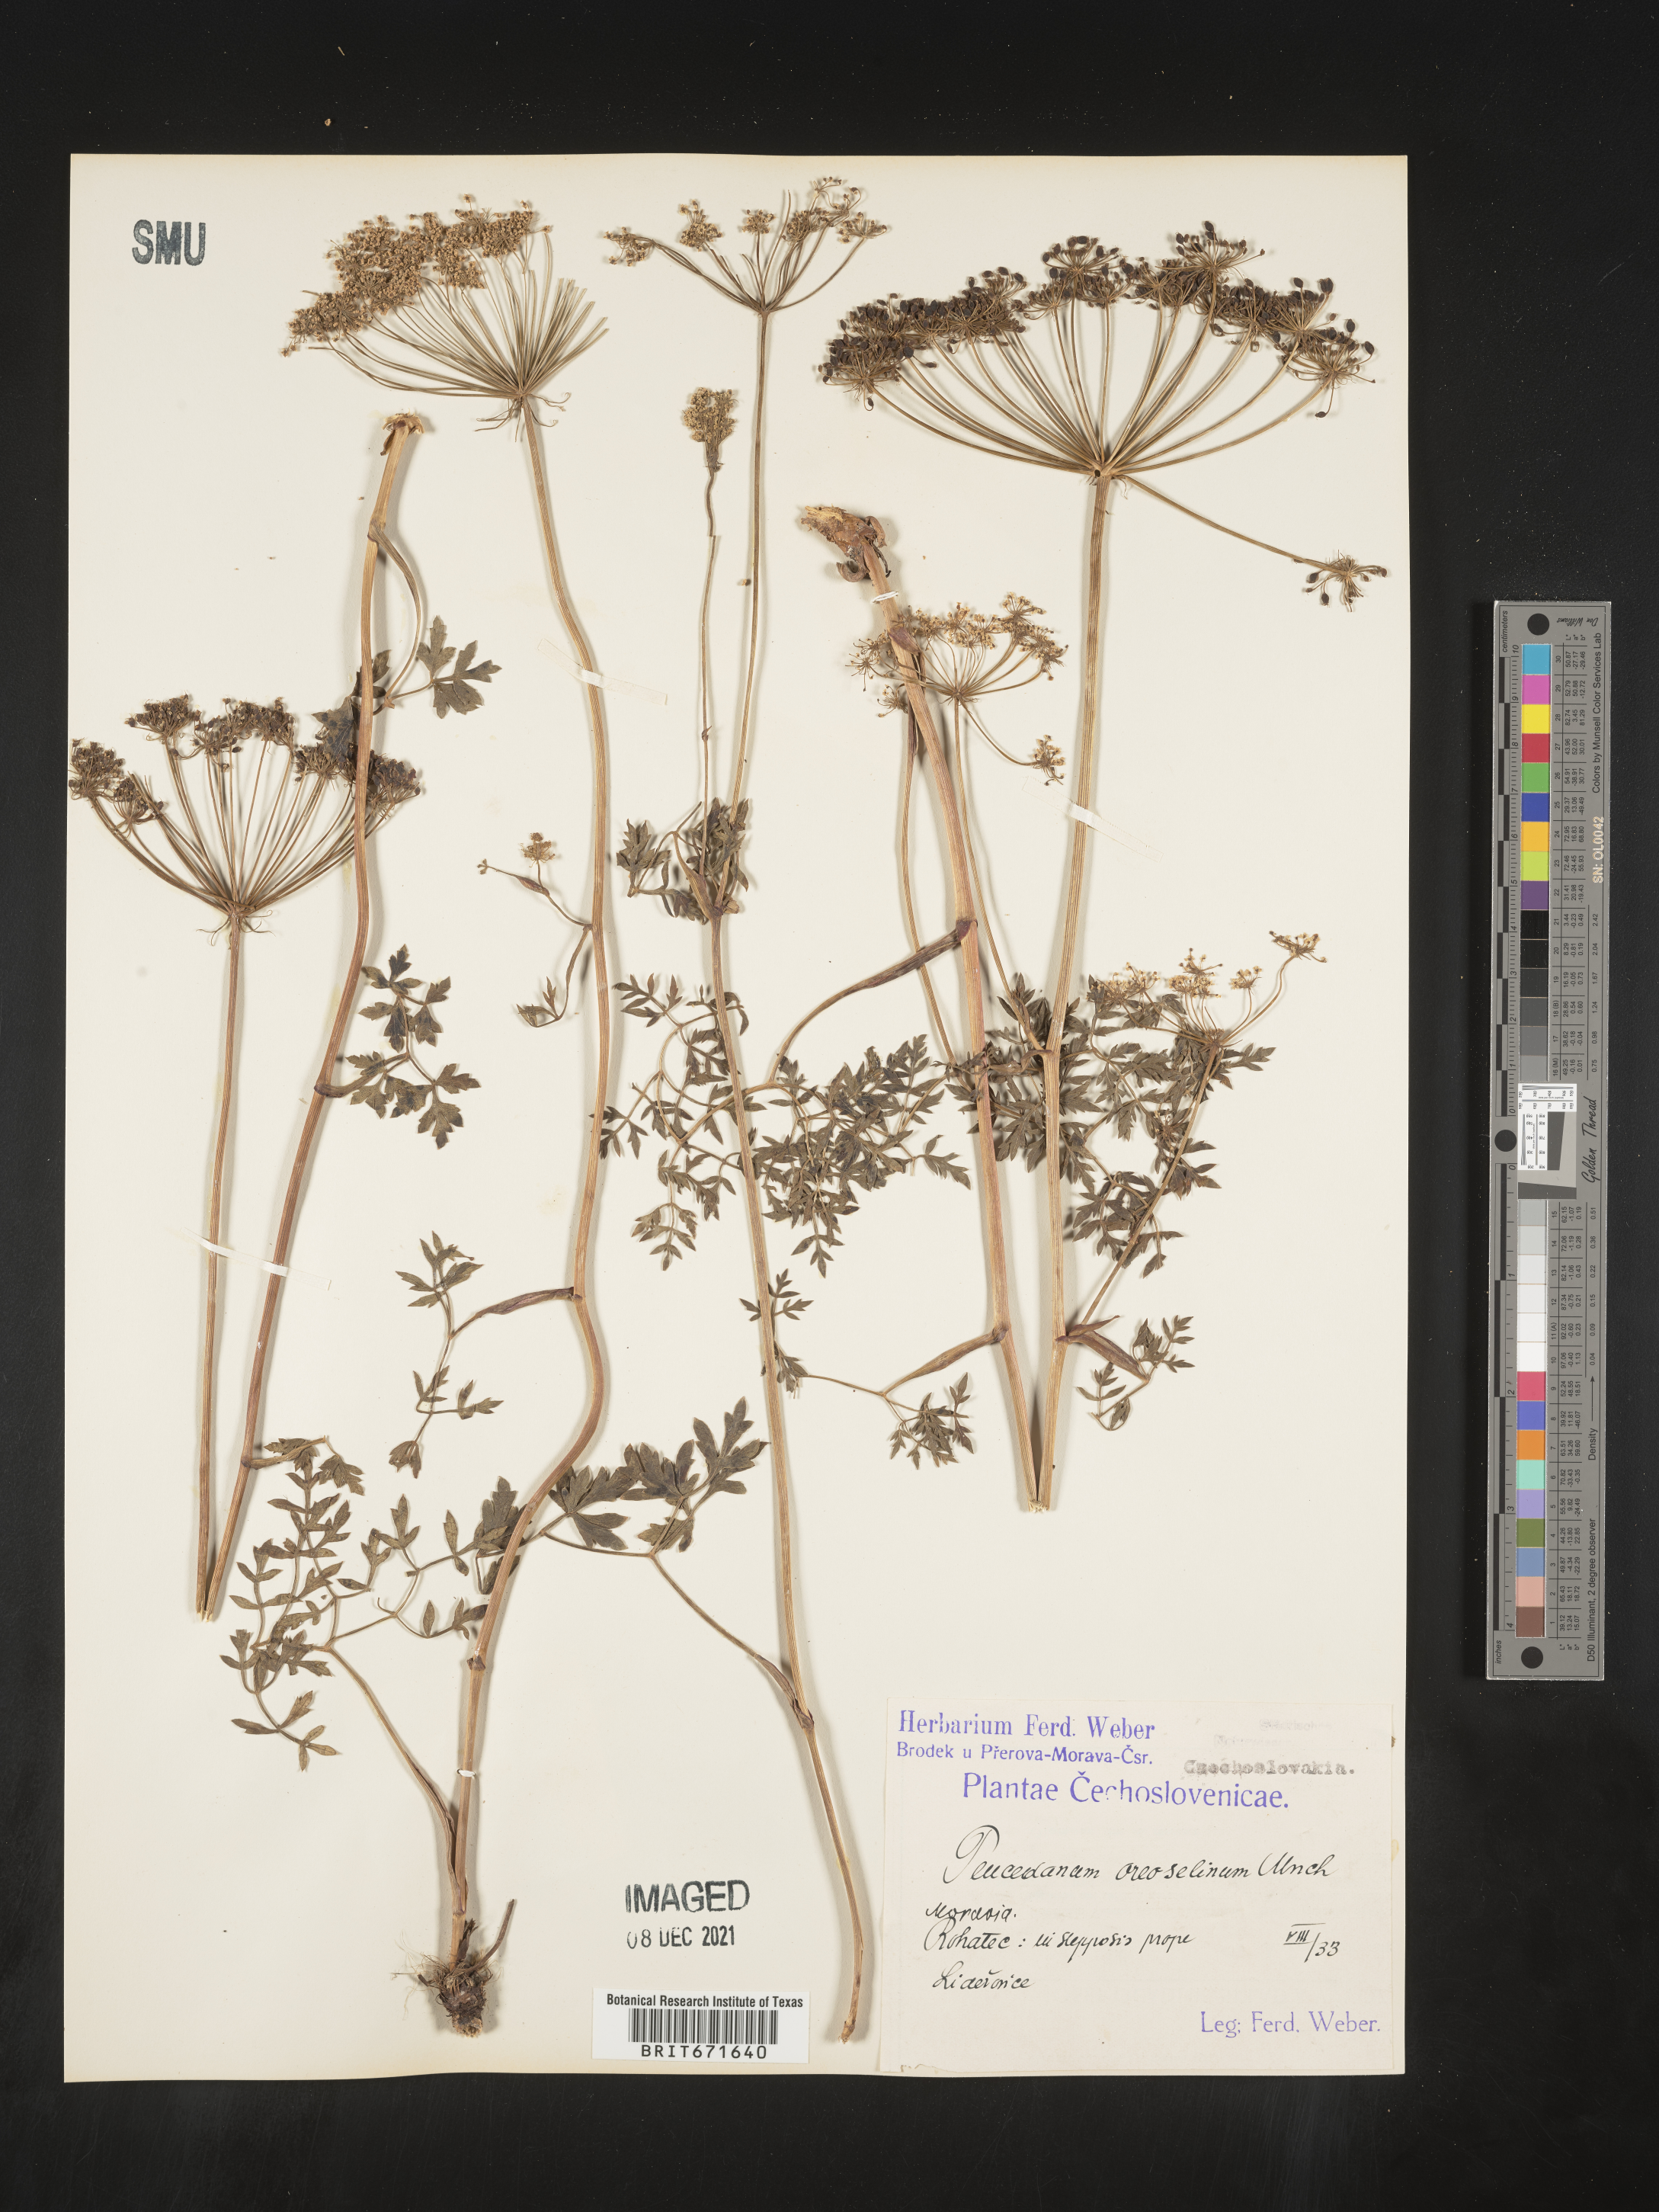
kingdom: Plantae
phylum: Tracheophyta
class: Magnoliopsida
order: Apiales
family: Apiaceae
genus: Peucedanum
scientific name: Peucedanum
